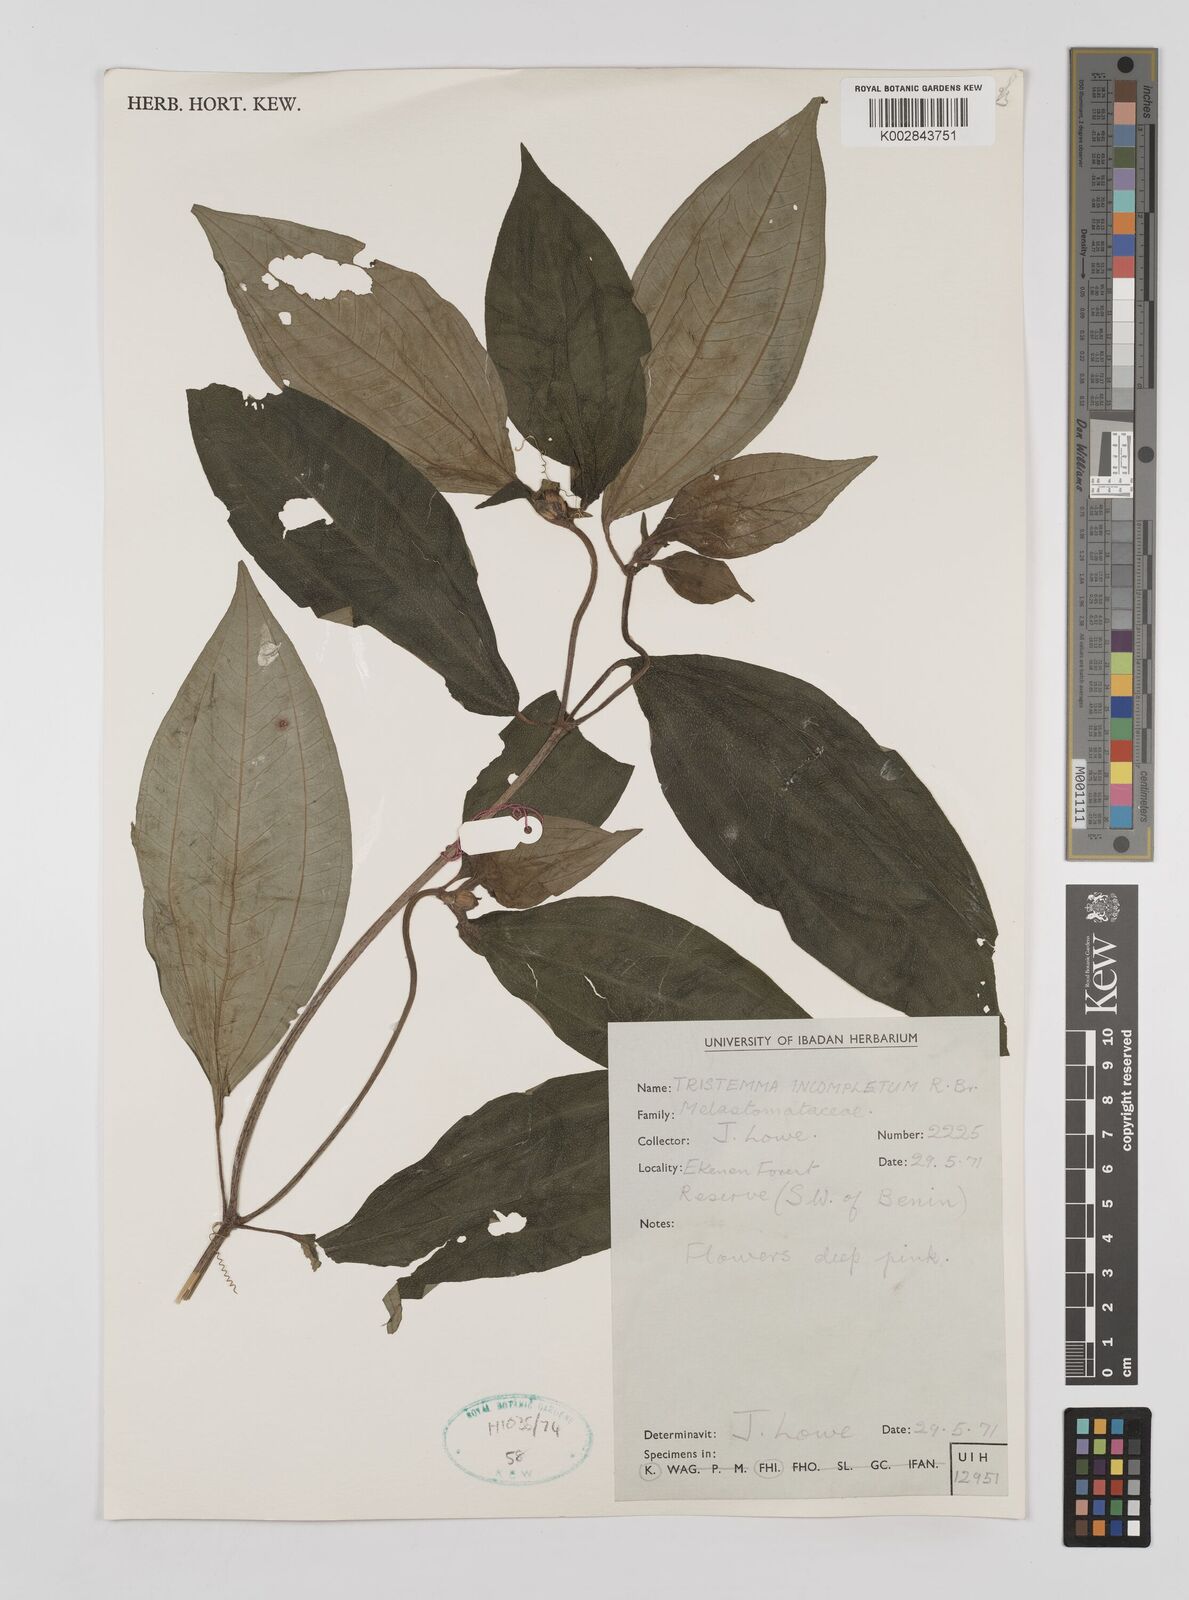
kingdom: Plantae
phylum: Tracheophyta
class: Magnoliopsida
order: Myrtales
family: Melastomataceae
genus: Tristemma
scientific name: Tristemma mauritianum
